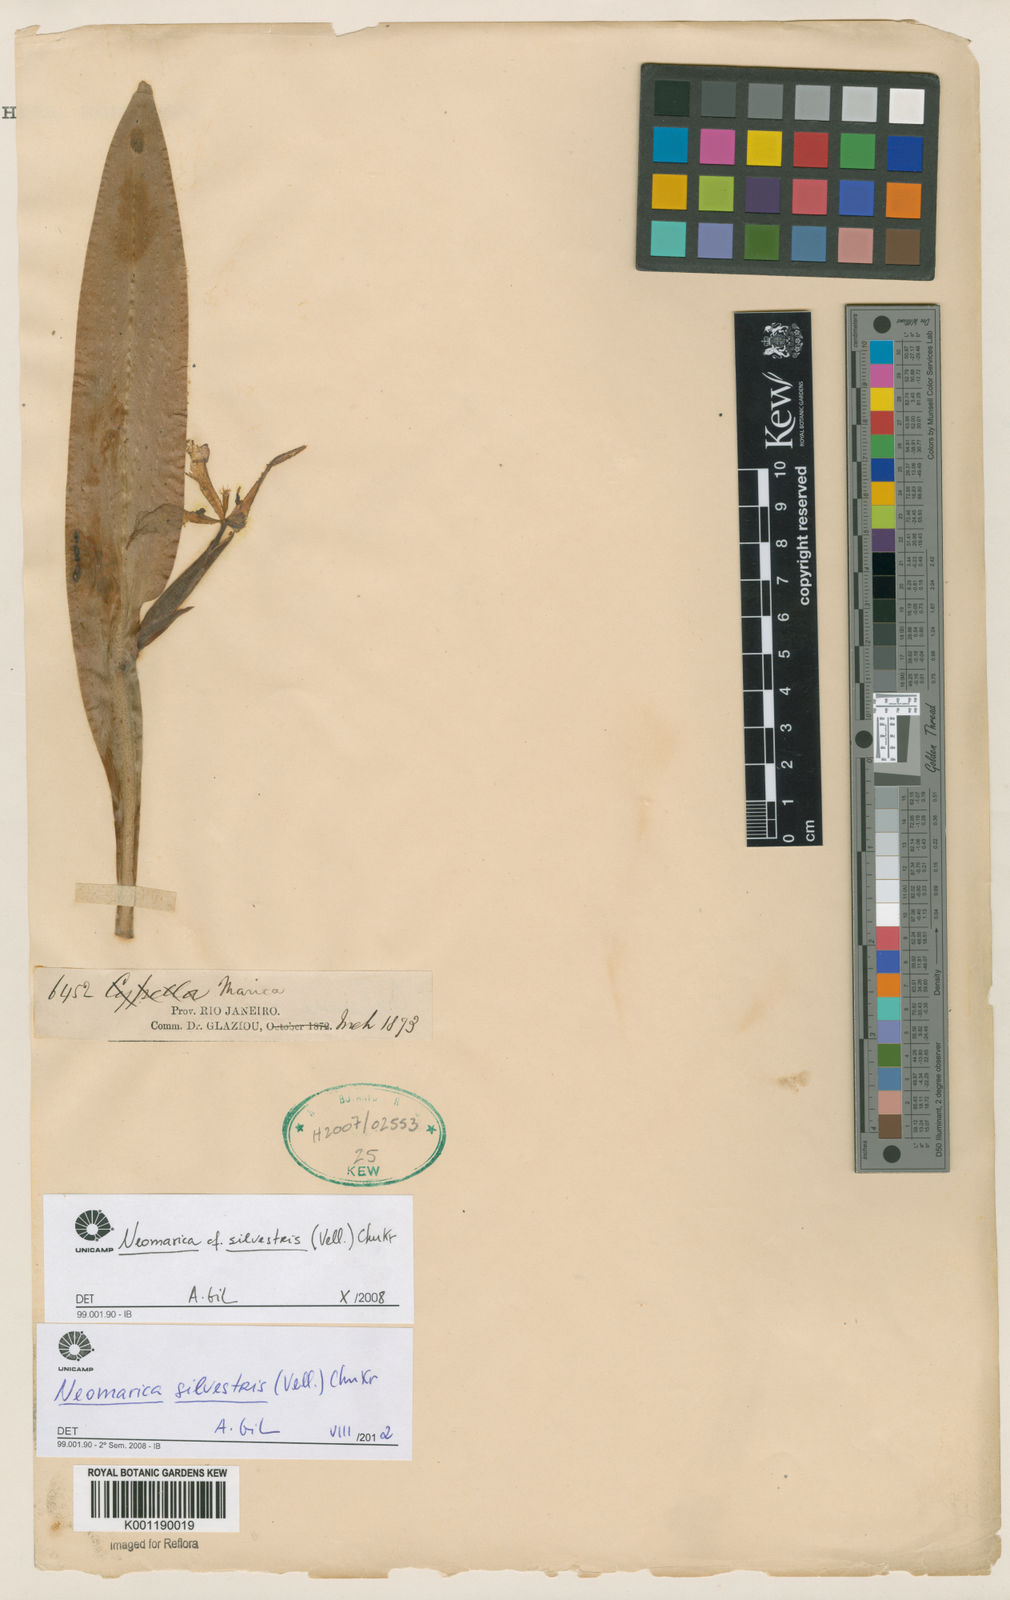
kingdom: Plantae
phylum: Tracheophyta
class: Liliopsida
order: Asparagales
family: Iridaceae
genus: Trimezia
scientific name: Trimezia silvestris
